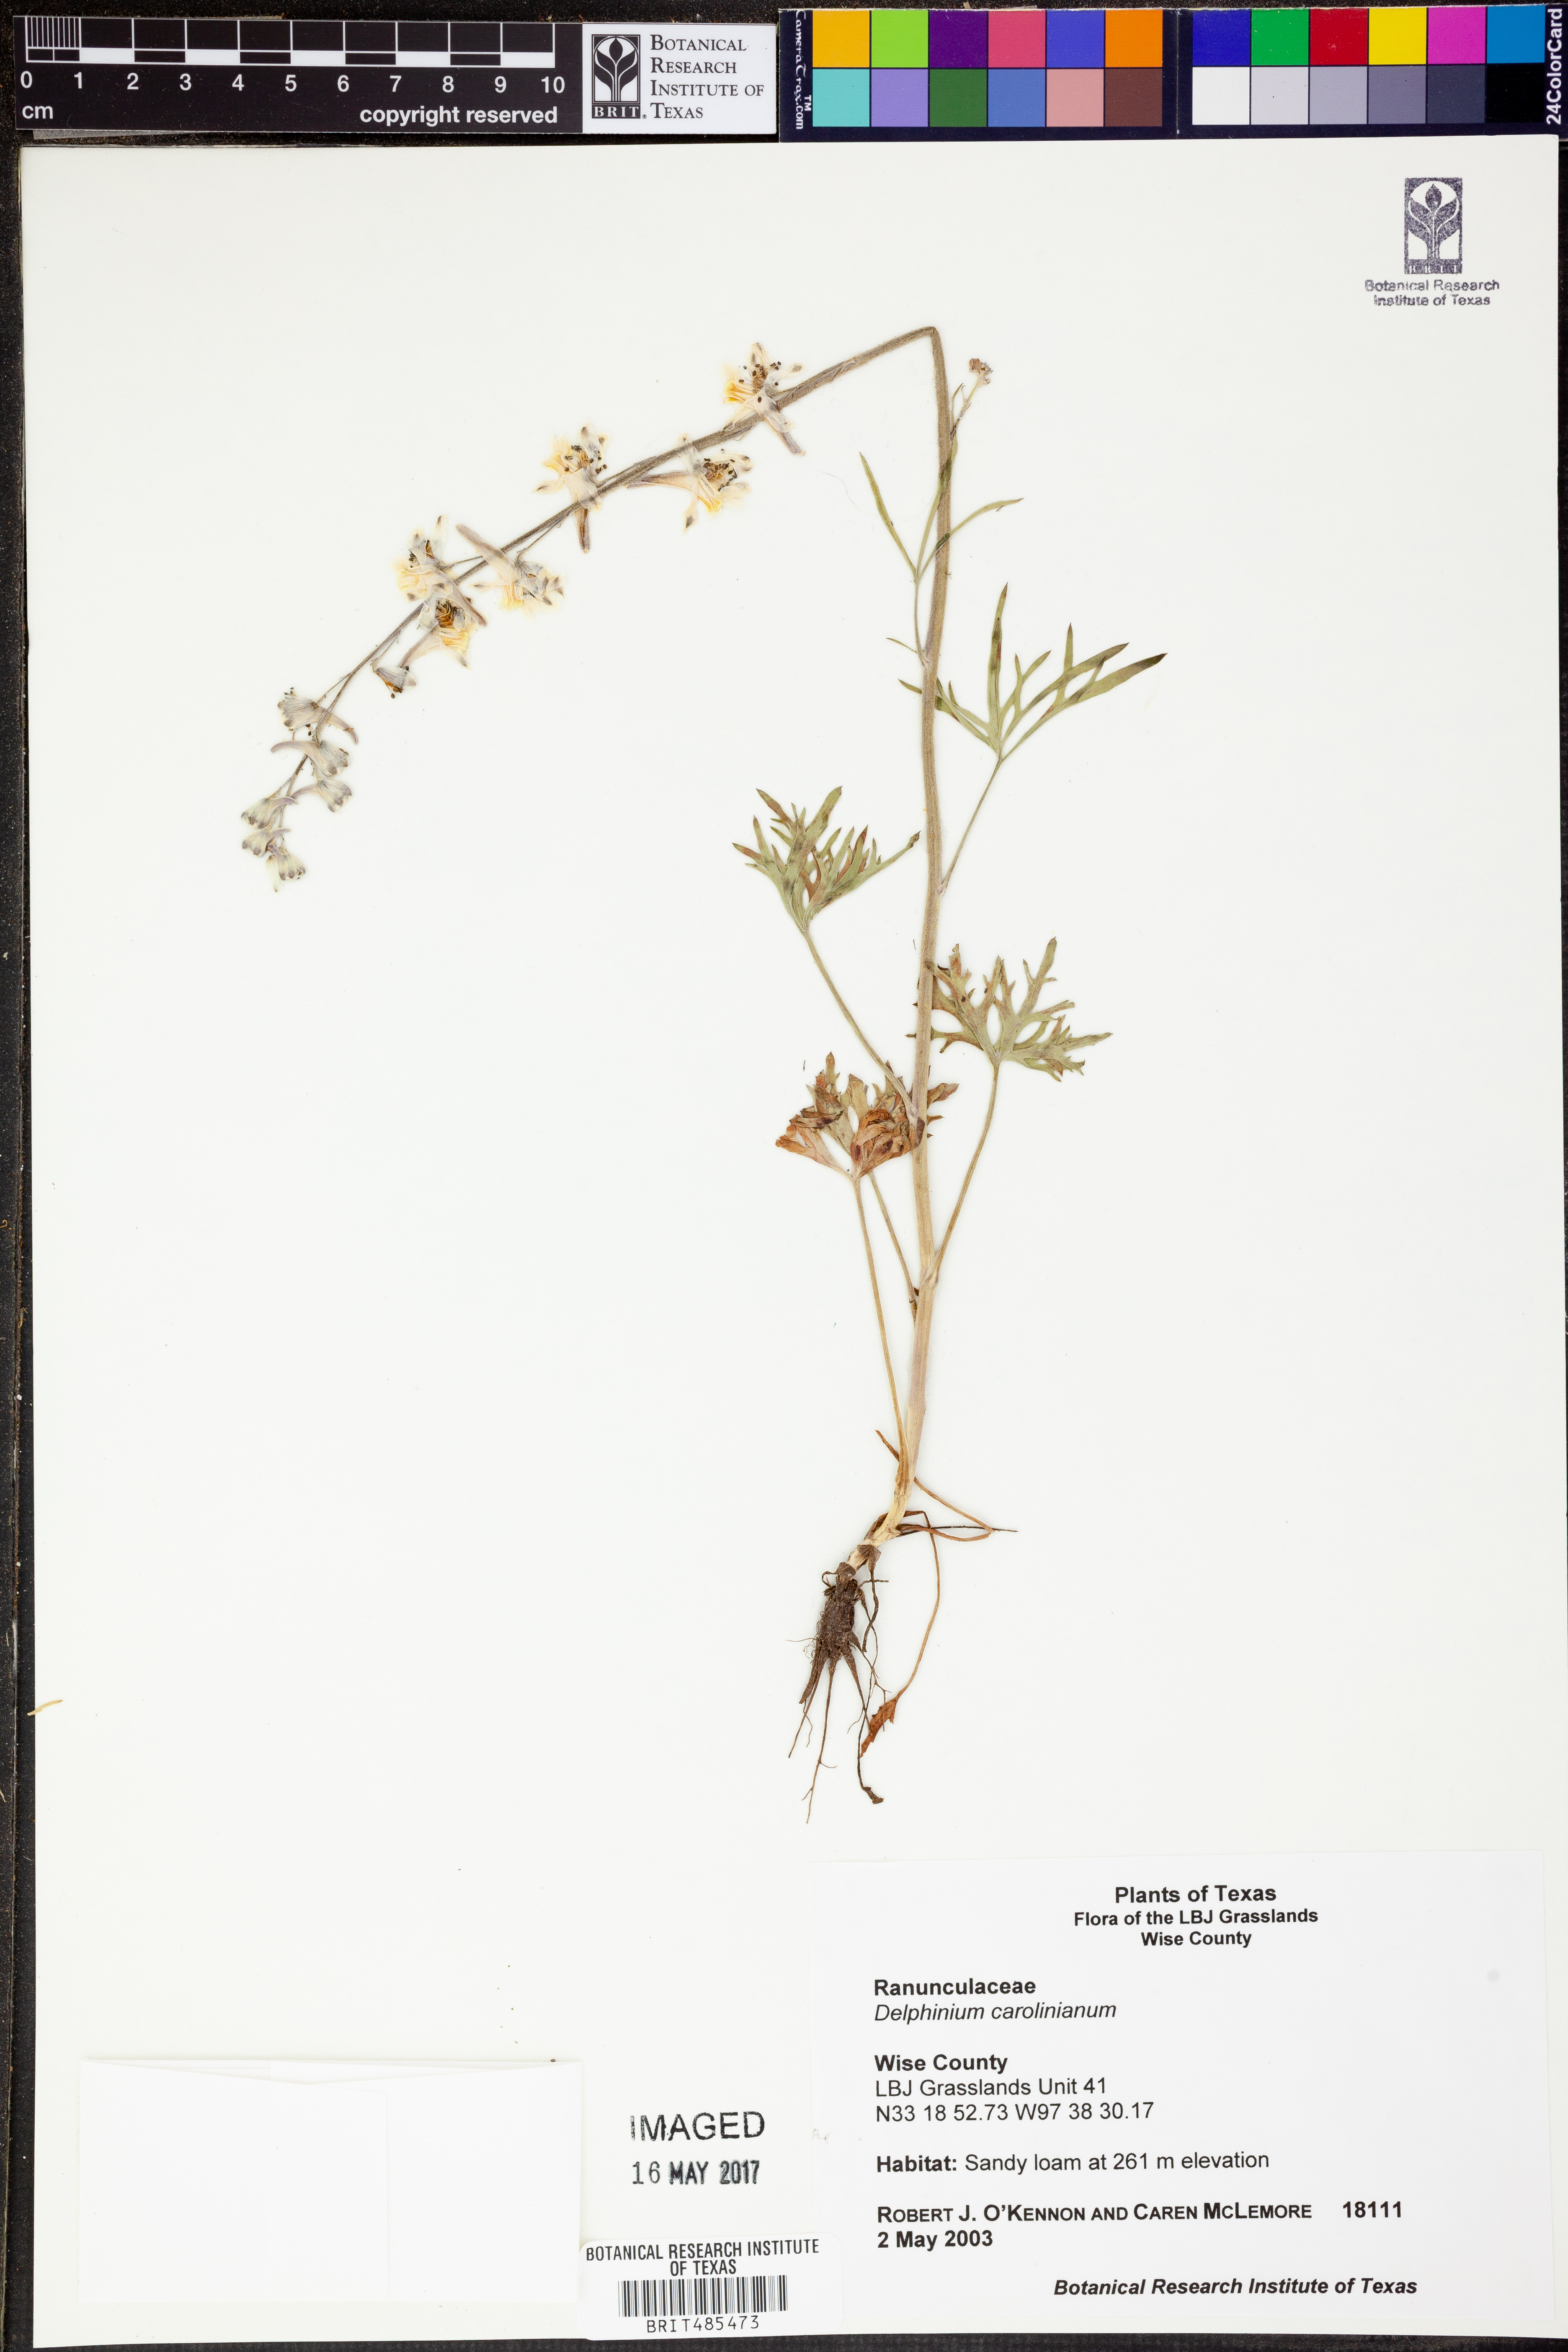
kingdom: Plantae
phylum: Tracheophyta
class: Magnoliopsida
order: Ranunculales
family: Ranunculaceae
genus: Delphinium
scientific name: Delphinium carolinianum
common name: Carolina larkspur
